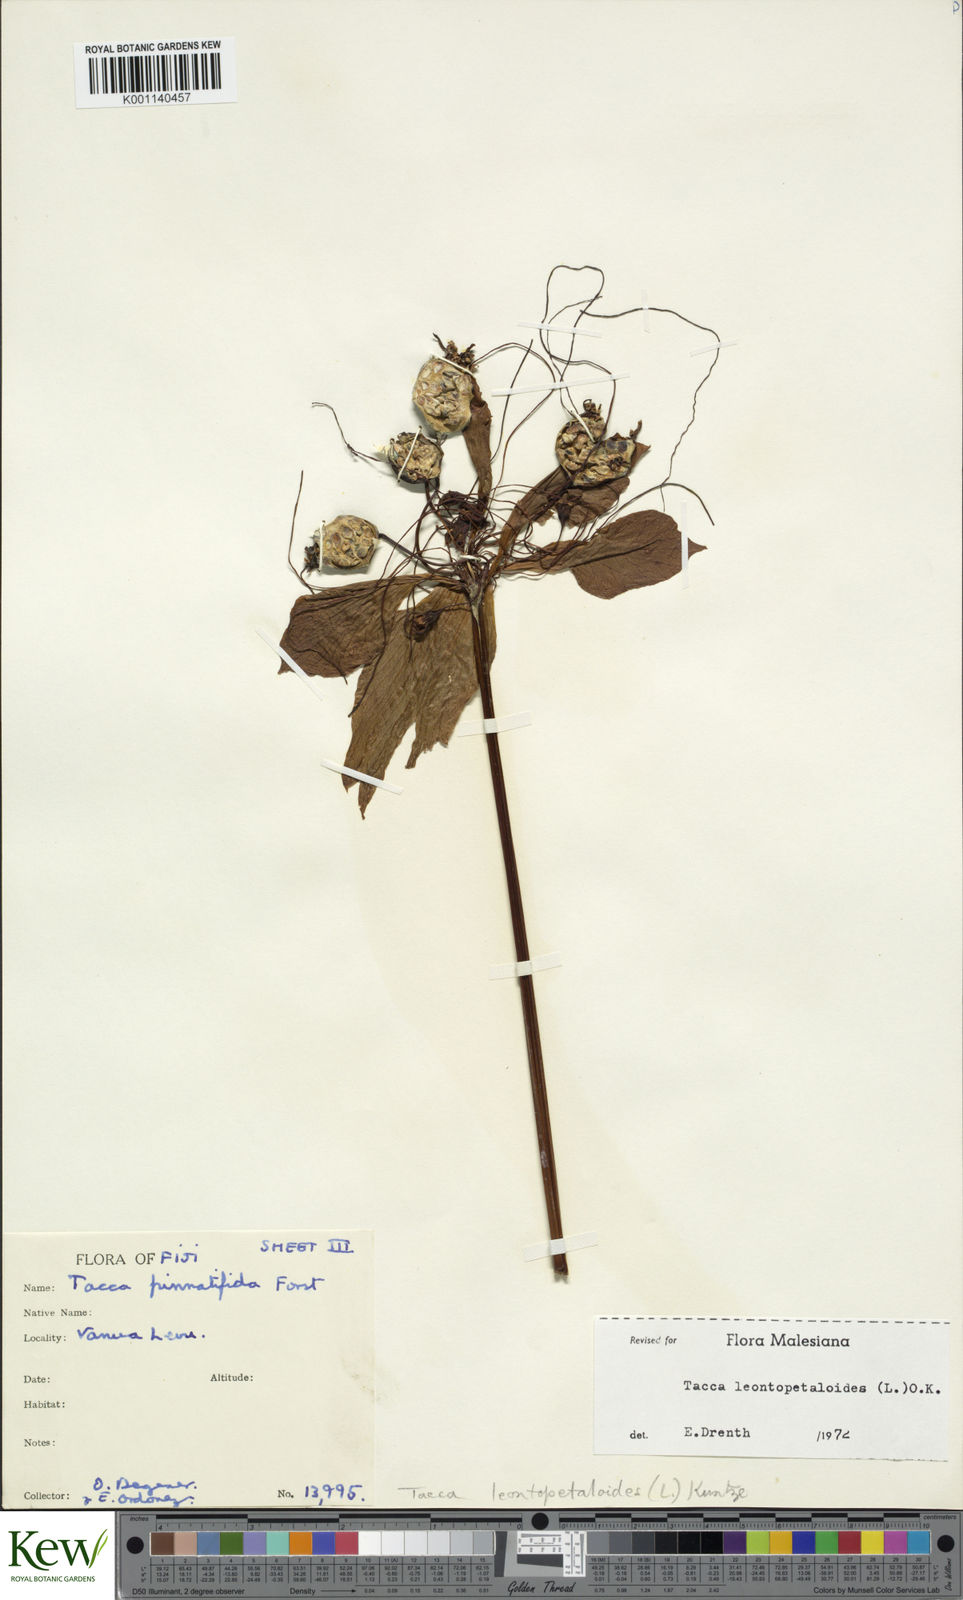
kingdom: Plantae
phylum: Tracheophyta
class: Liliopsida
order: Dioscoreales
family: Dioscoreaceae
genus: Tacca
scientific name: Tacca leontopetaloides
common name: Arrowroot
